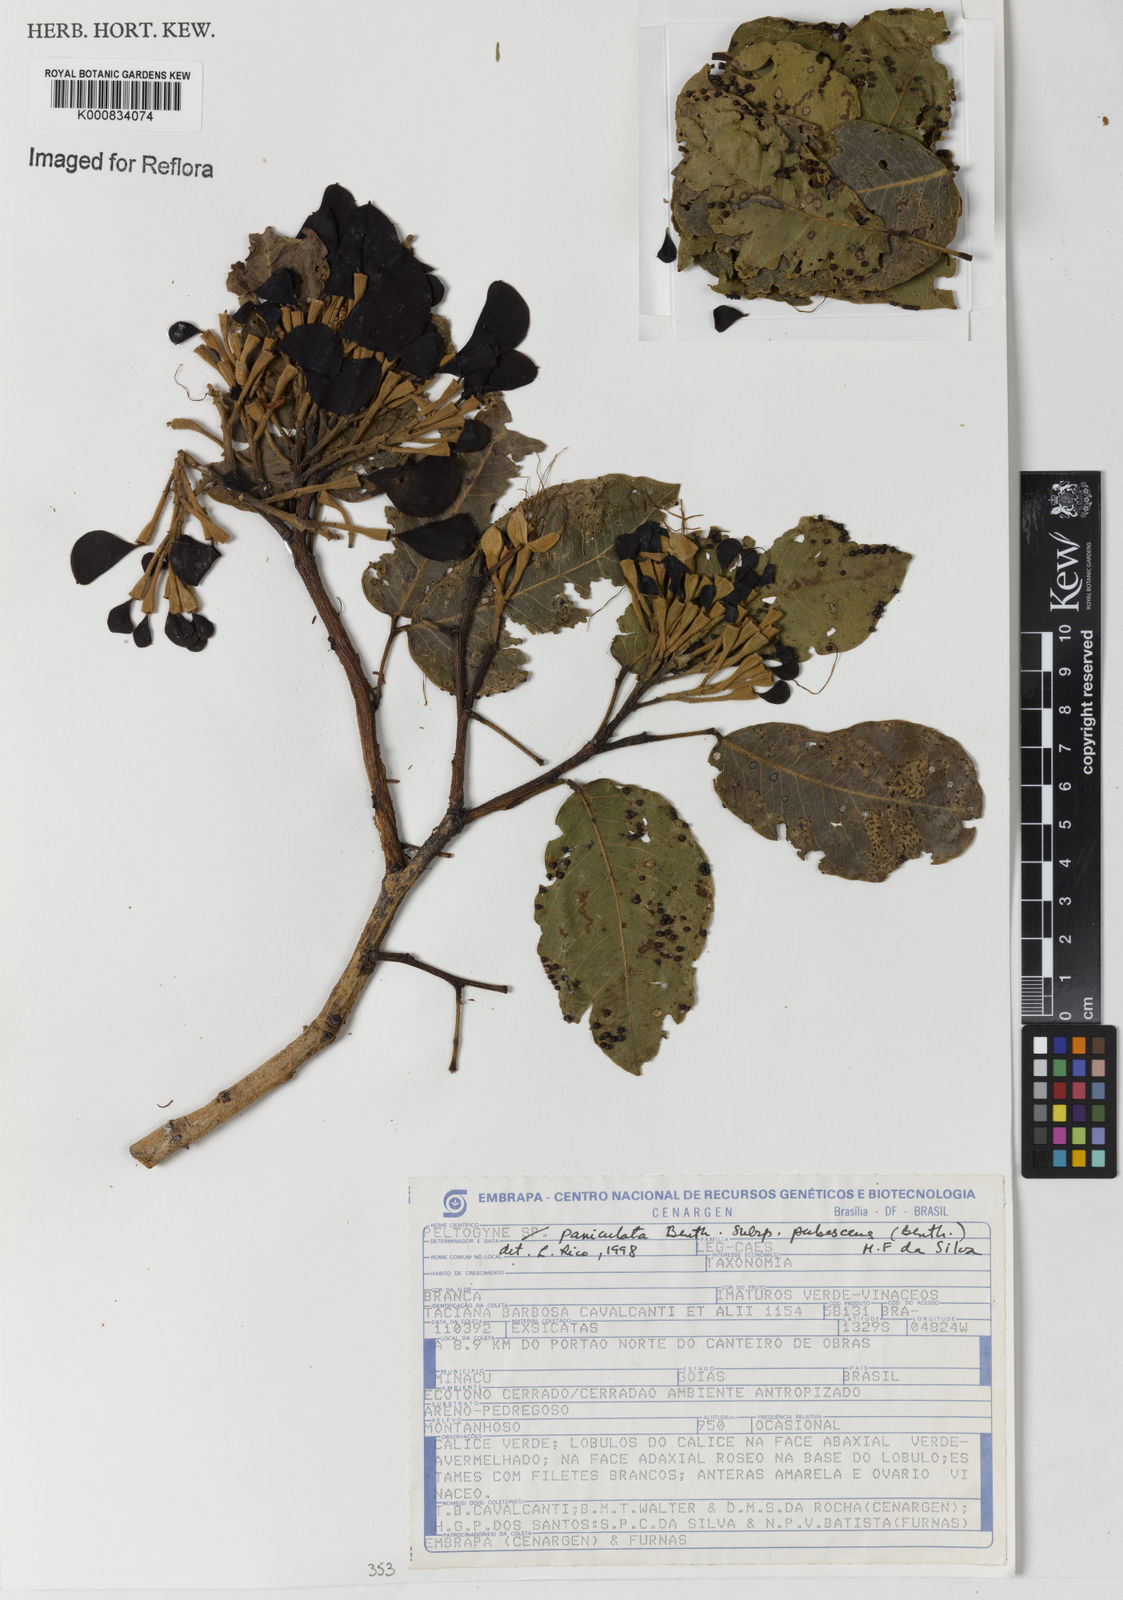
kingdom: Plantae
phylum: Tracheophyta
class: Magnoliopsida
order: Fabales
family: Fabaceae
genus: Peltogyne
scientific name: Peltogyne paniculata
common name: Purpleheart
